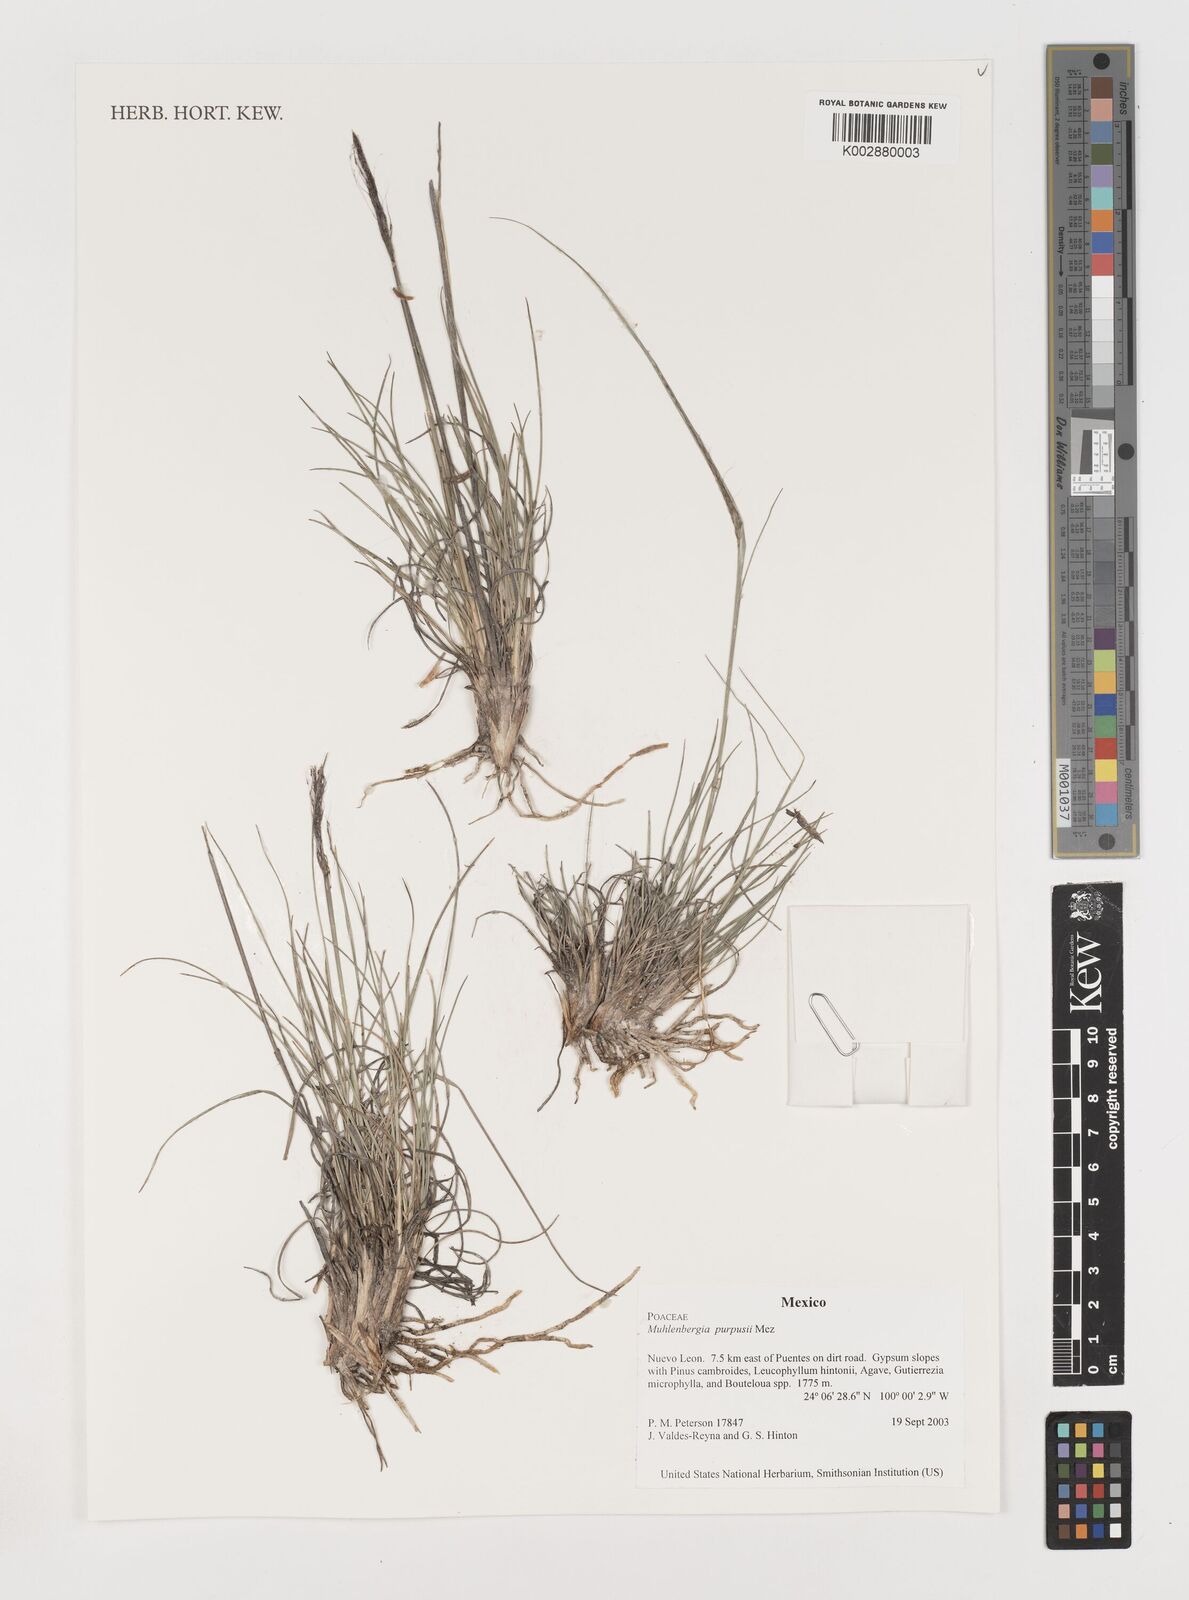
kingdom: Plantae
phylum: Tracheophyta
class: Liliopsida
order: Poales
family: Poaceae
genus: Muhlenbergia
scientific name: Muhlenbergia purpusii
